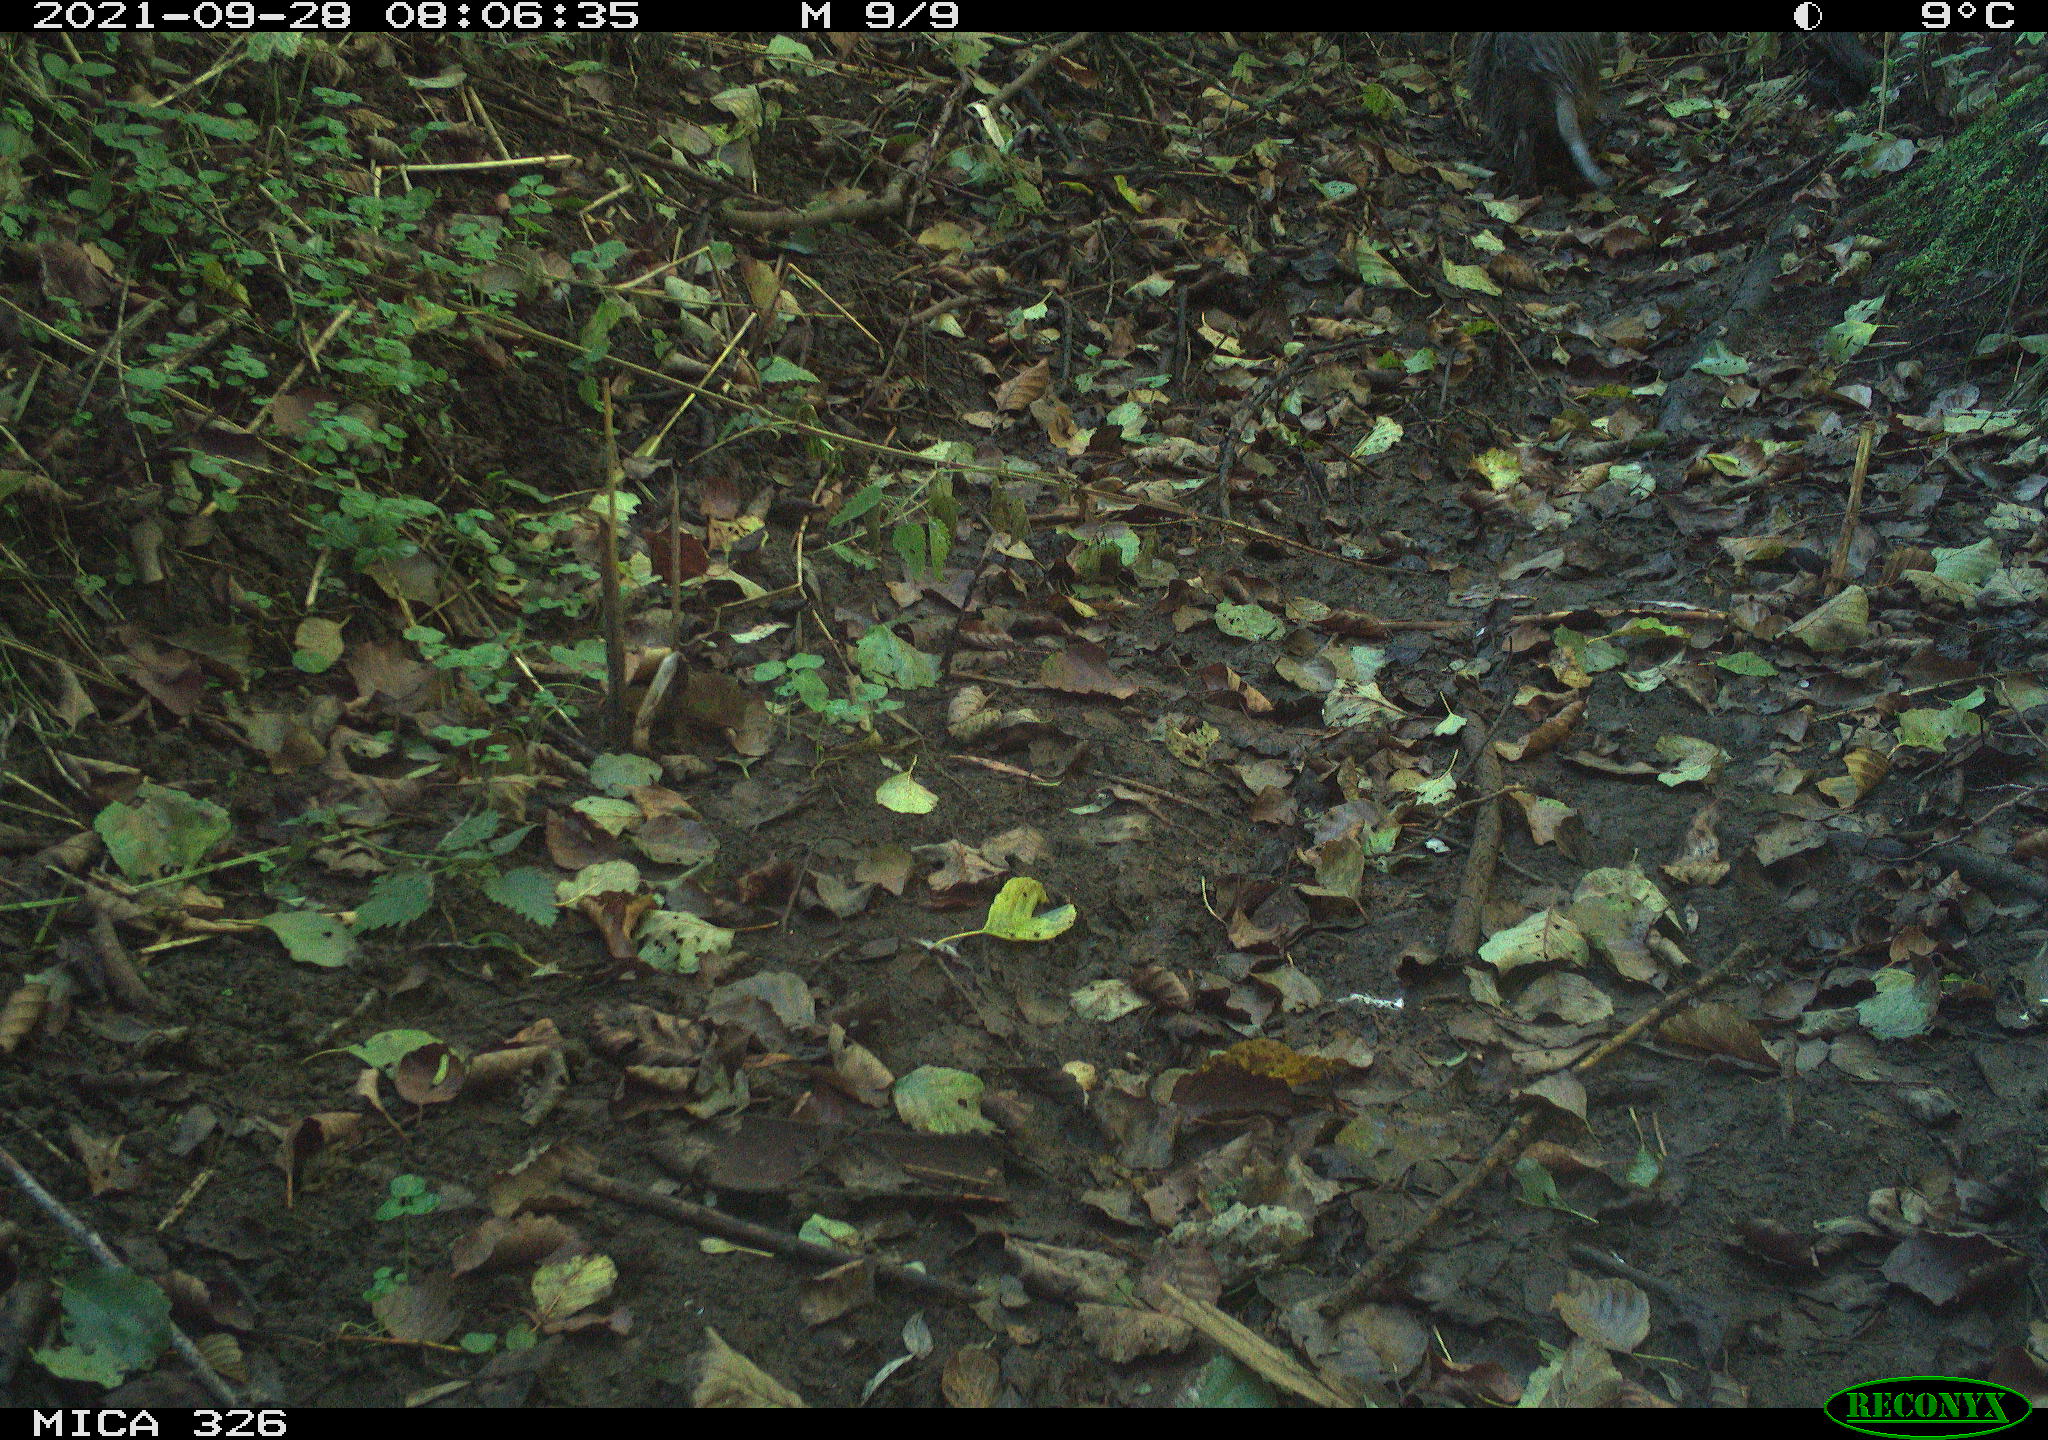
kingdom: Animalia
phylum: Chordata
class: Mammalia
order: Rodentia
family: Myocastoridae
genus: Myocastor
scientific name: Myocastor coypus
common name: Coypu
